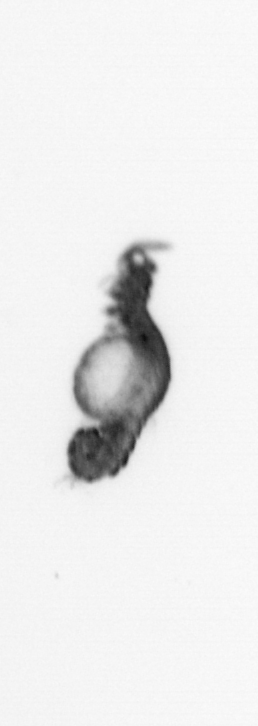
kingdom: Animalia
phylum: Annelida
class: Polychaeta
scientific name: Polychaeta
